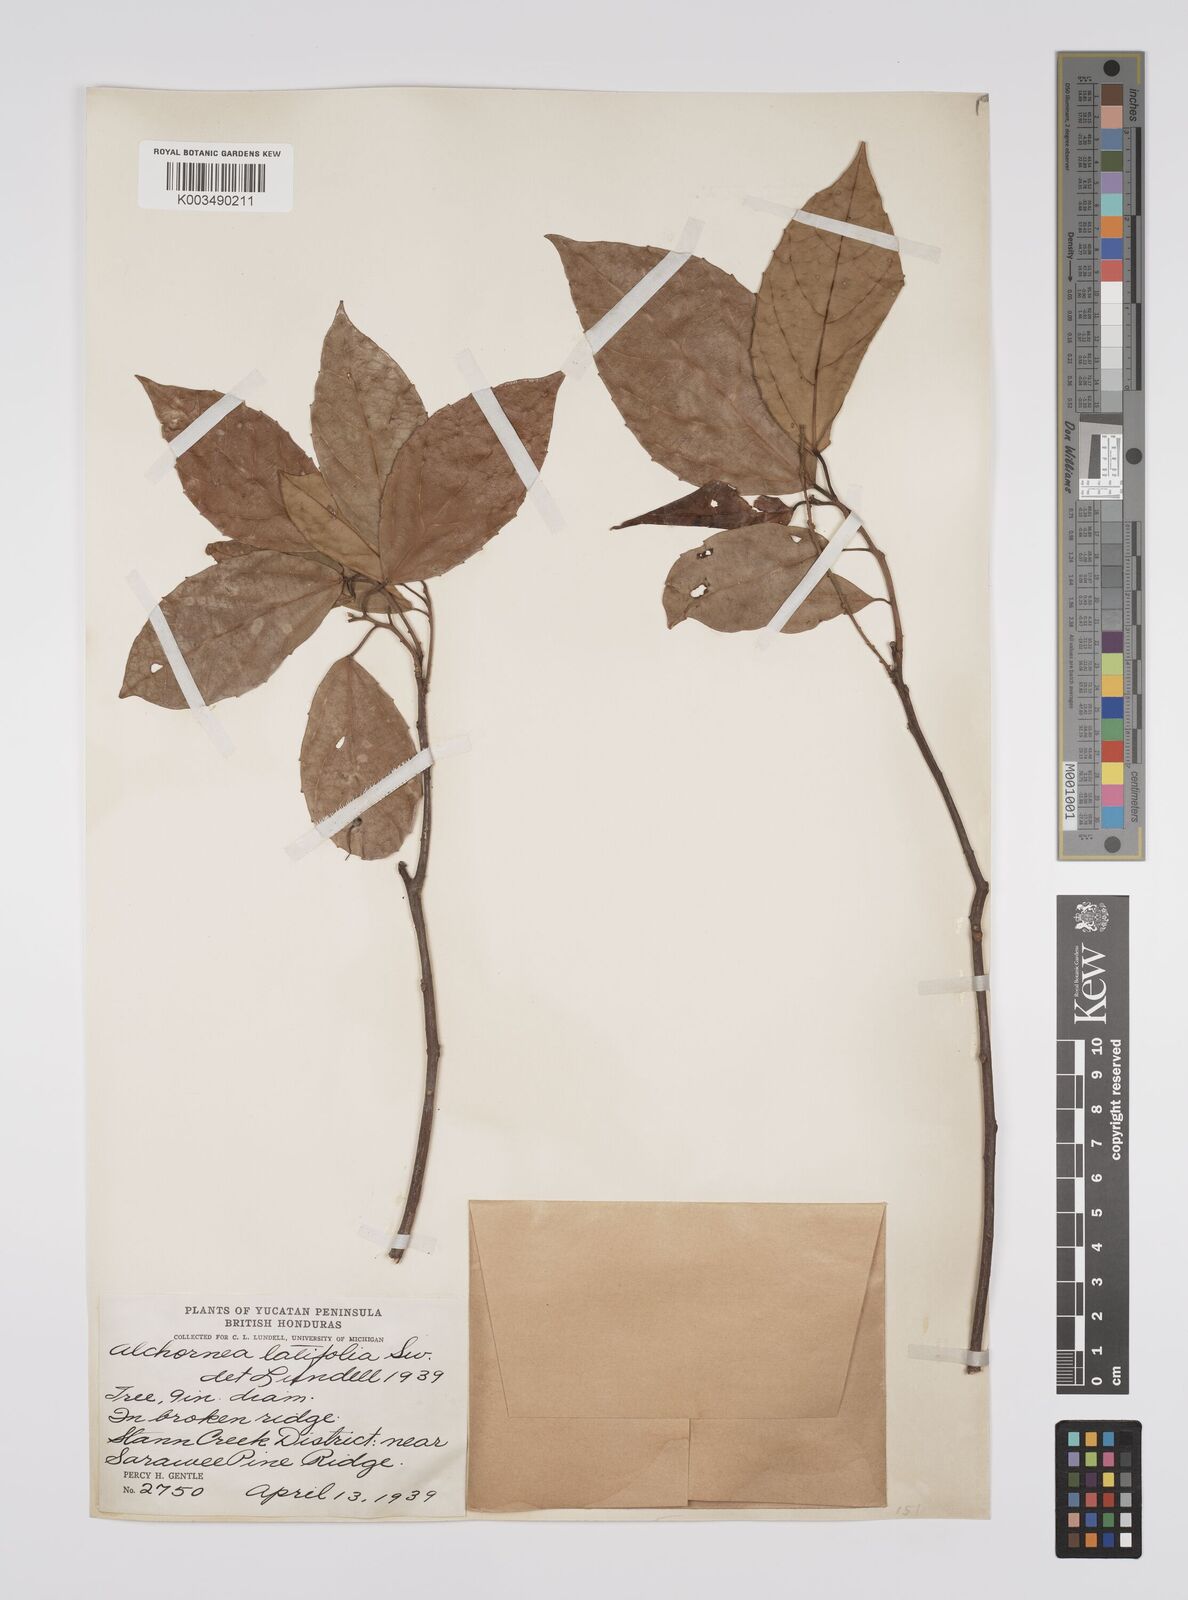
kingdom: Plantae
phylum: Tracheophyta
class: Magnoliopsida
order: Malpighiales
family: Euphorbiaceae
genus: Alchornea
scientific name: Alchornea latifolia
